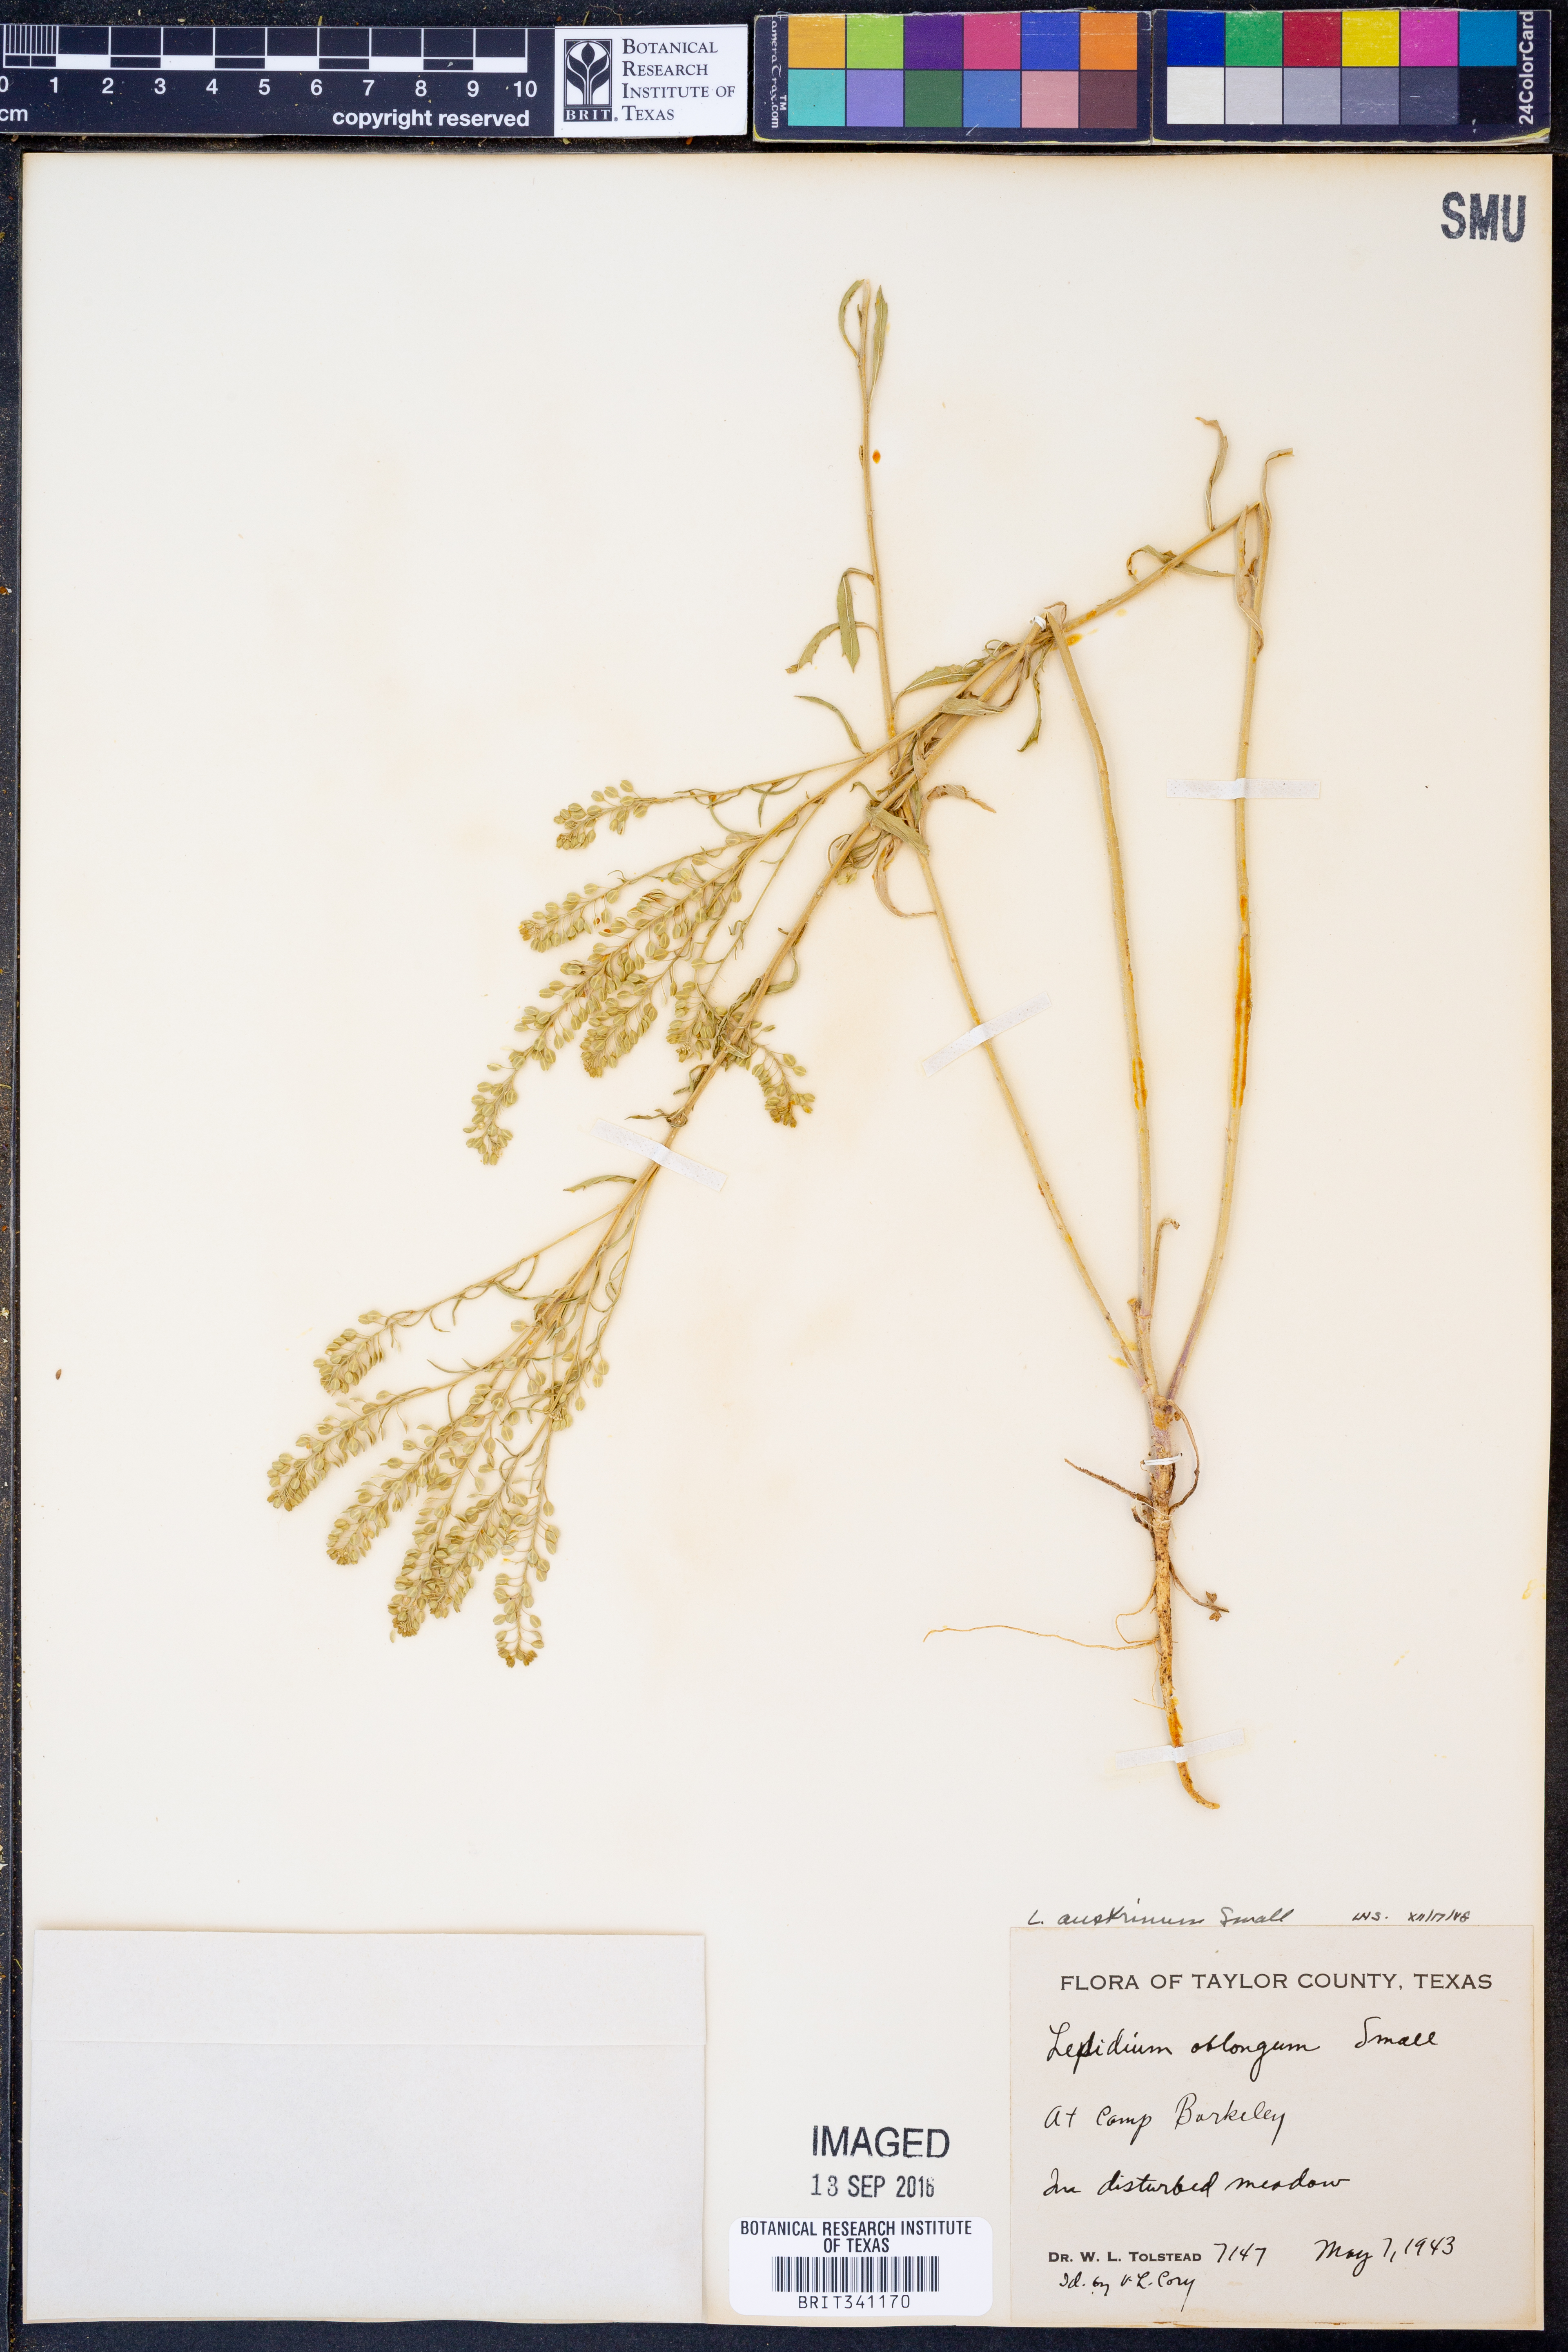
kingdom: Plantae
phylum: Tracheophyta
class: Magnoliopsida
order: Brassicales
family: Brassicaceae
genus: Lepidium
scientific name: Lepidium austrinum
